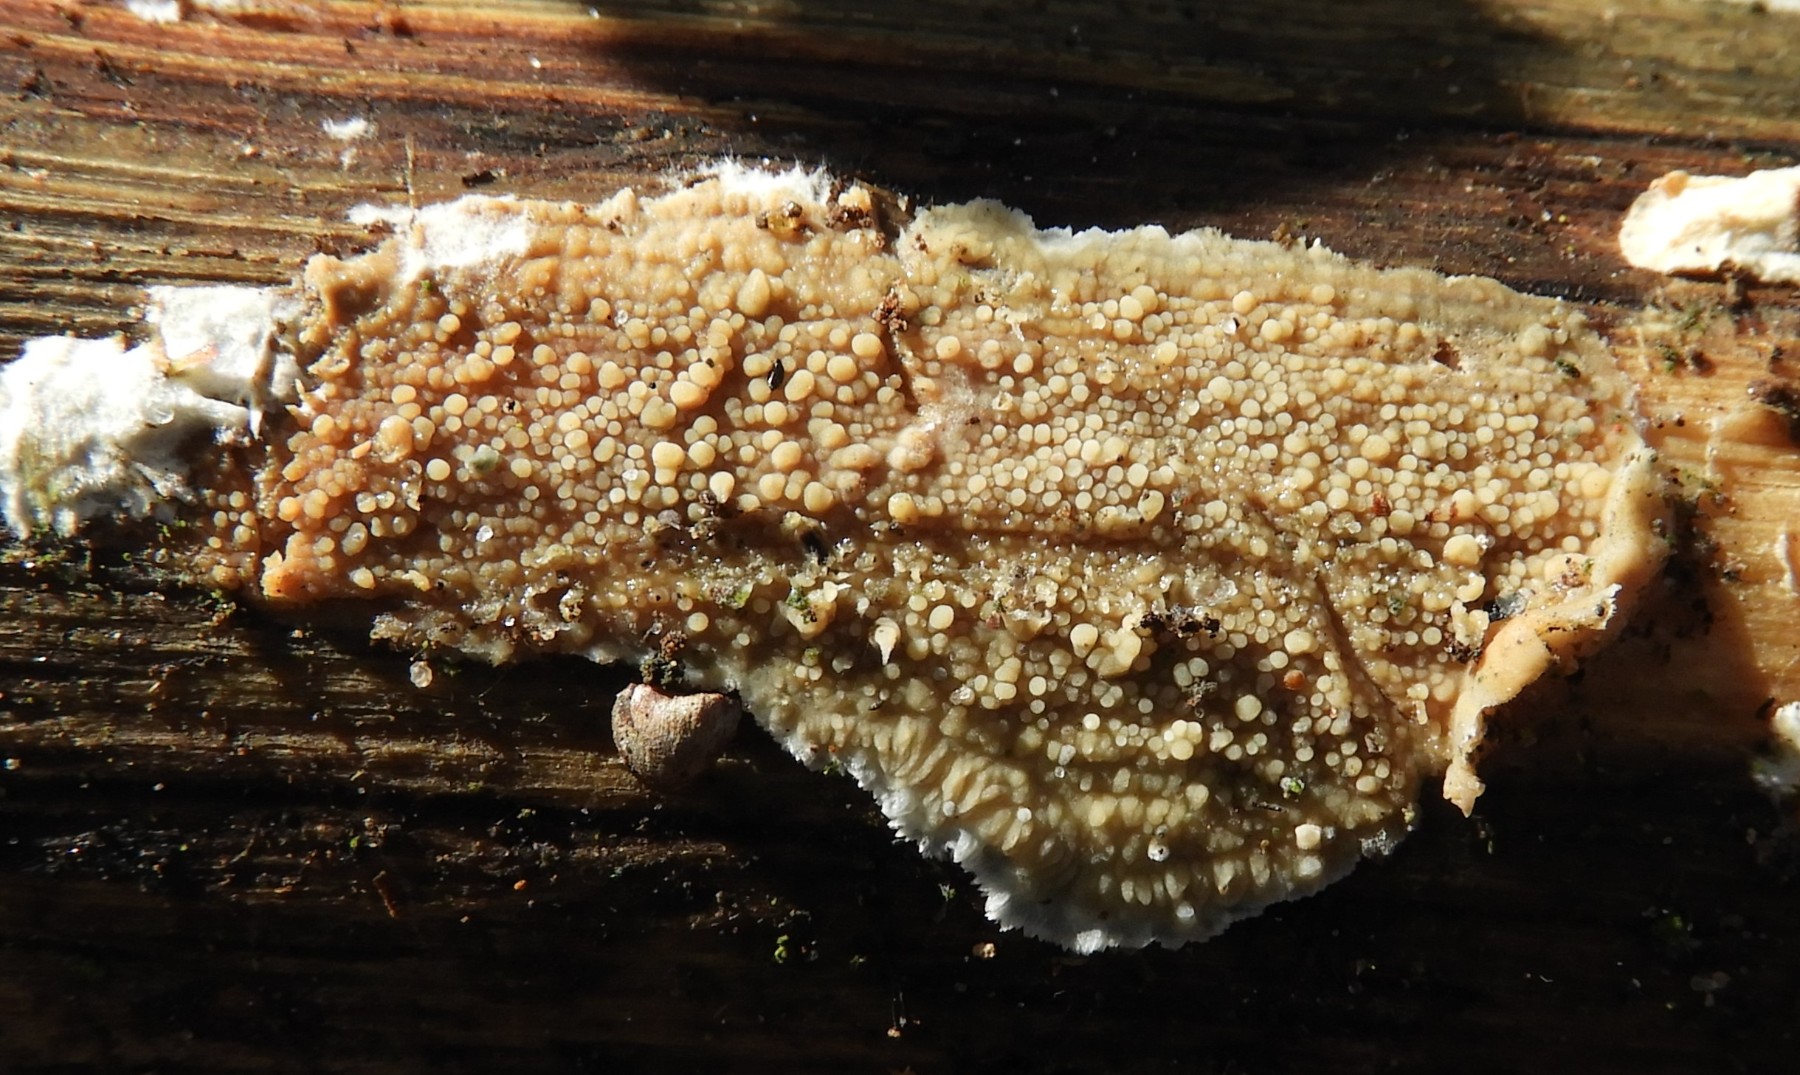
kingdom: Fungi
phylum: Basidiomycota
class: Agaricomycetes
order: Corticiales
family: Corticiaceae
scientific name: Corticiaceae
